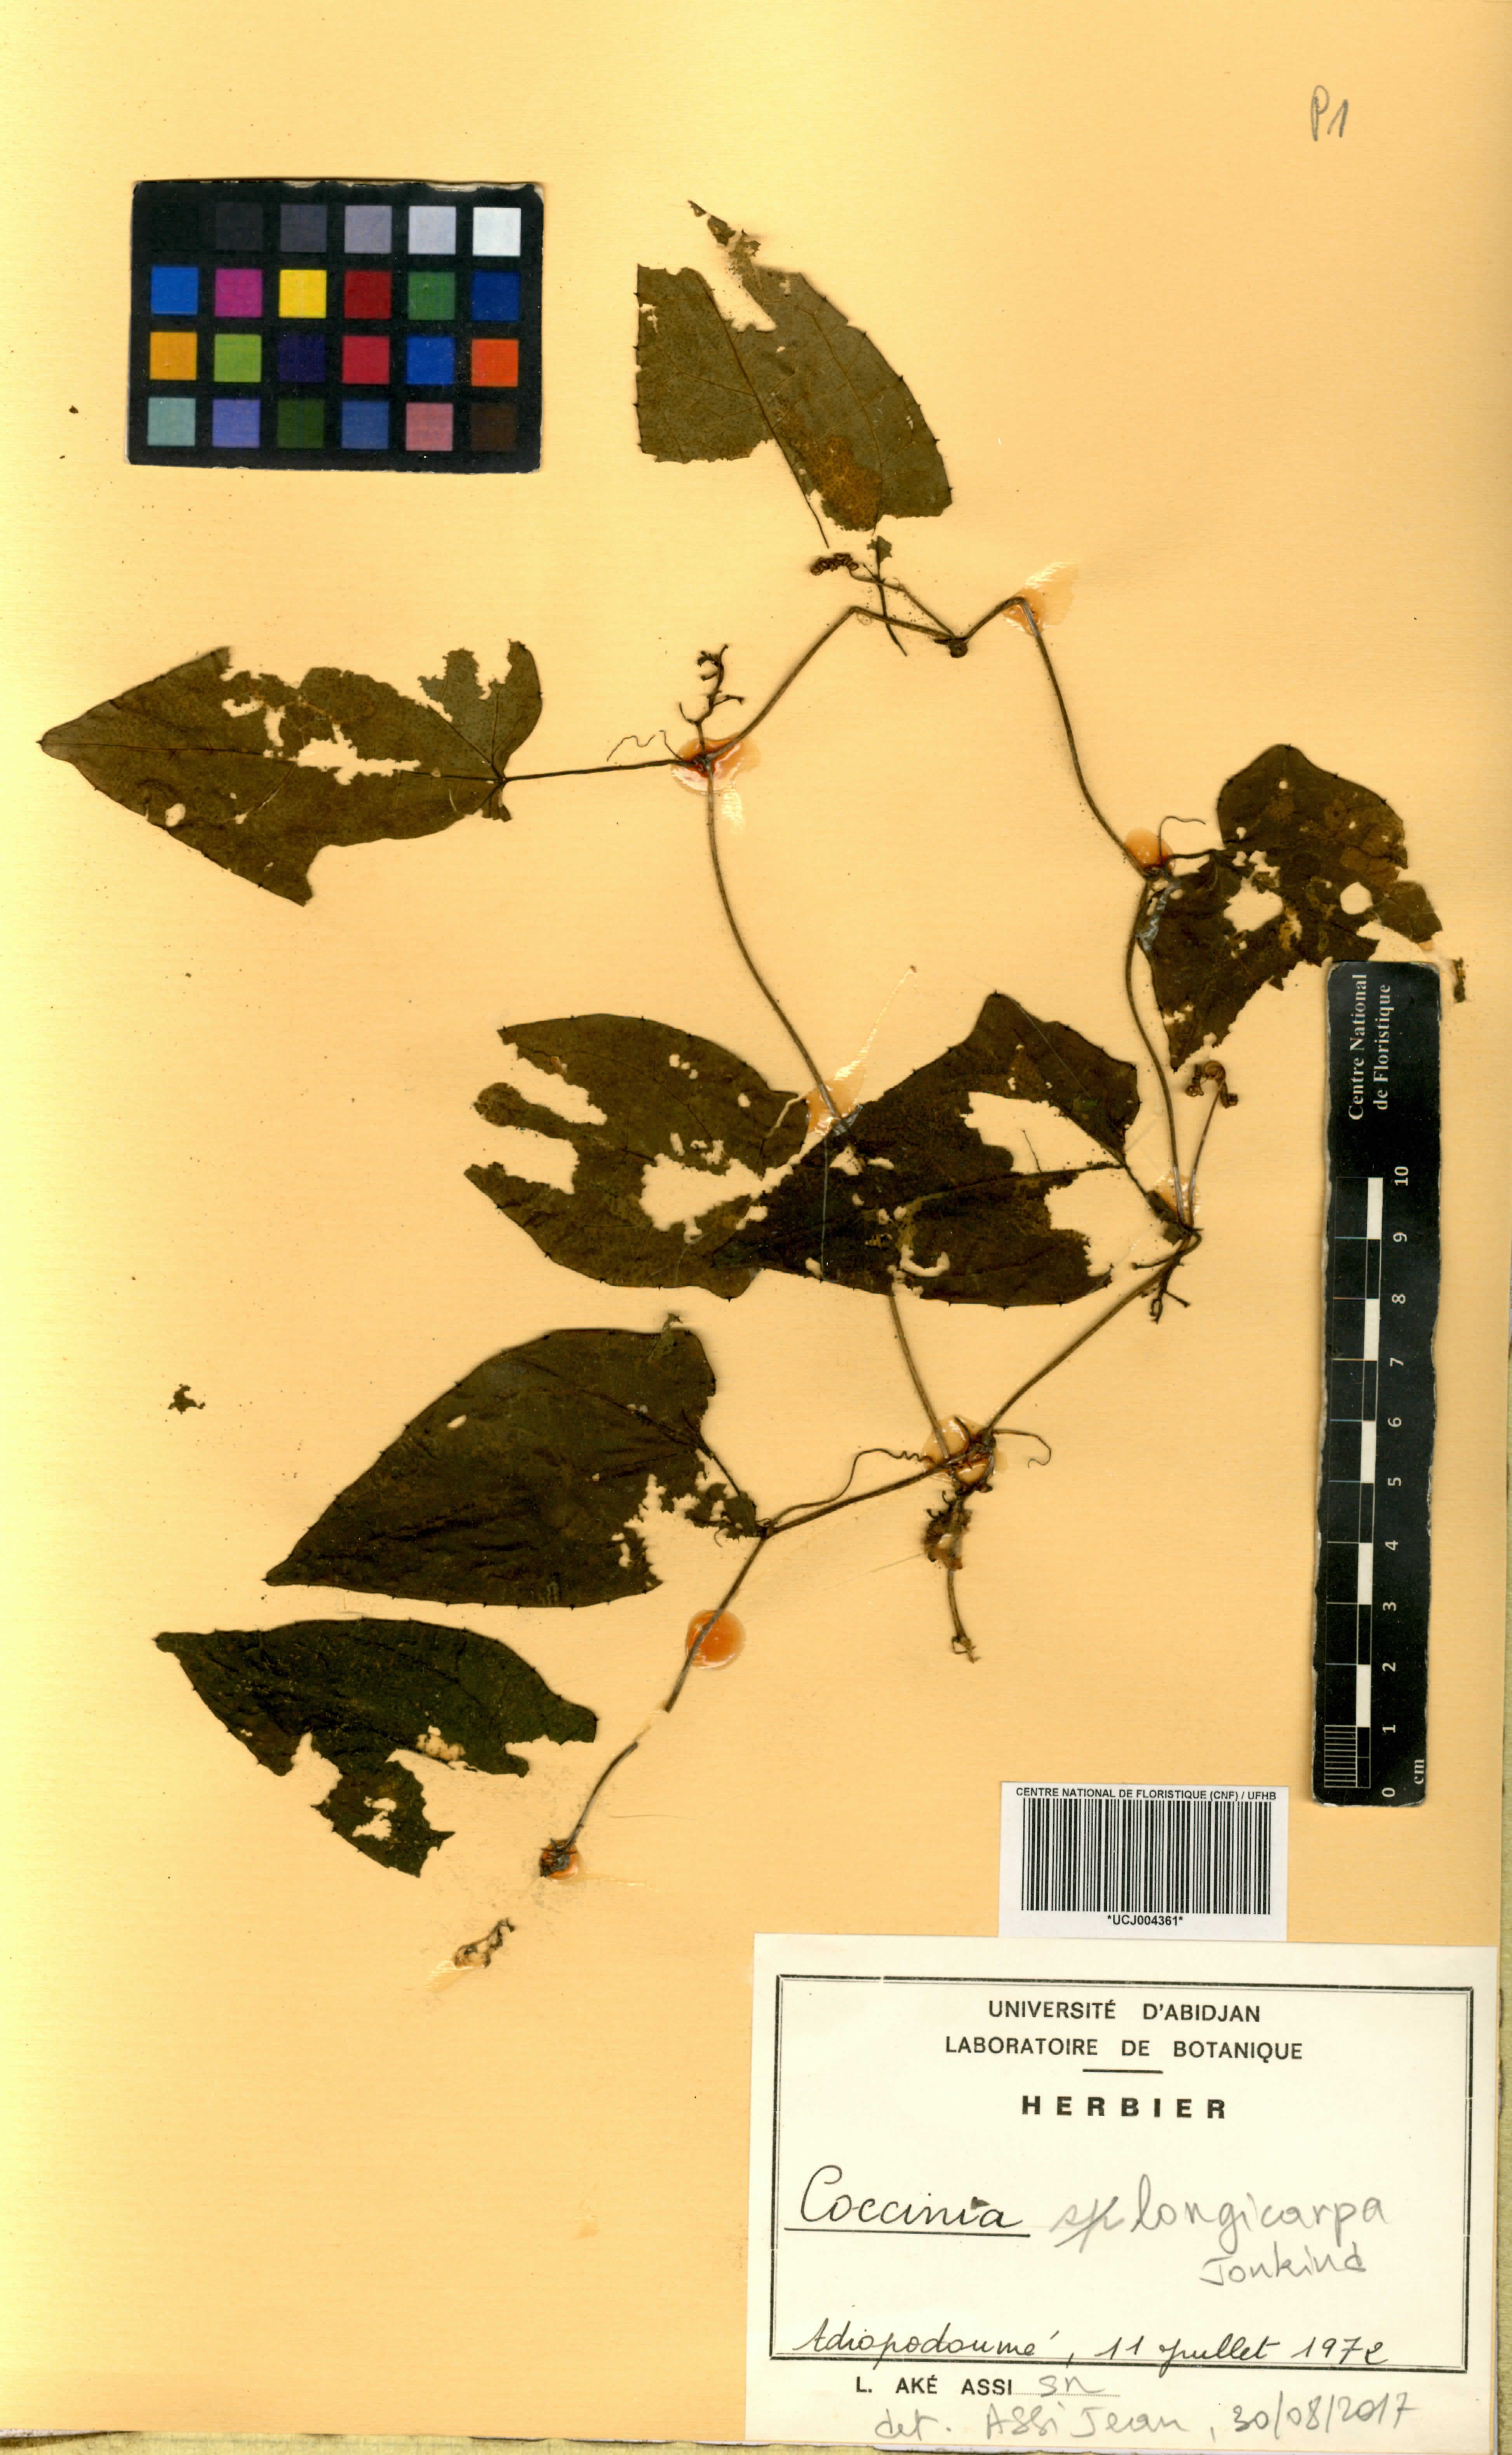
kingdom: Plantae
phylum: Tracheophyta
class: Magnoliopsida
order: Cucurbitales
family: Cucurbitaceae
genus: Coccinia
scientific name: Coccinia longicarpa
